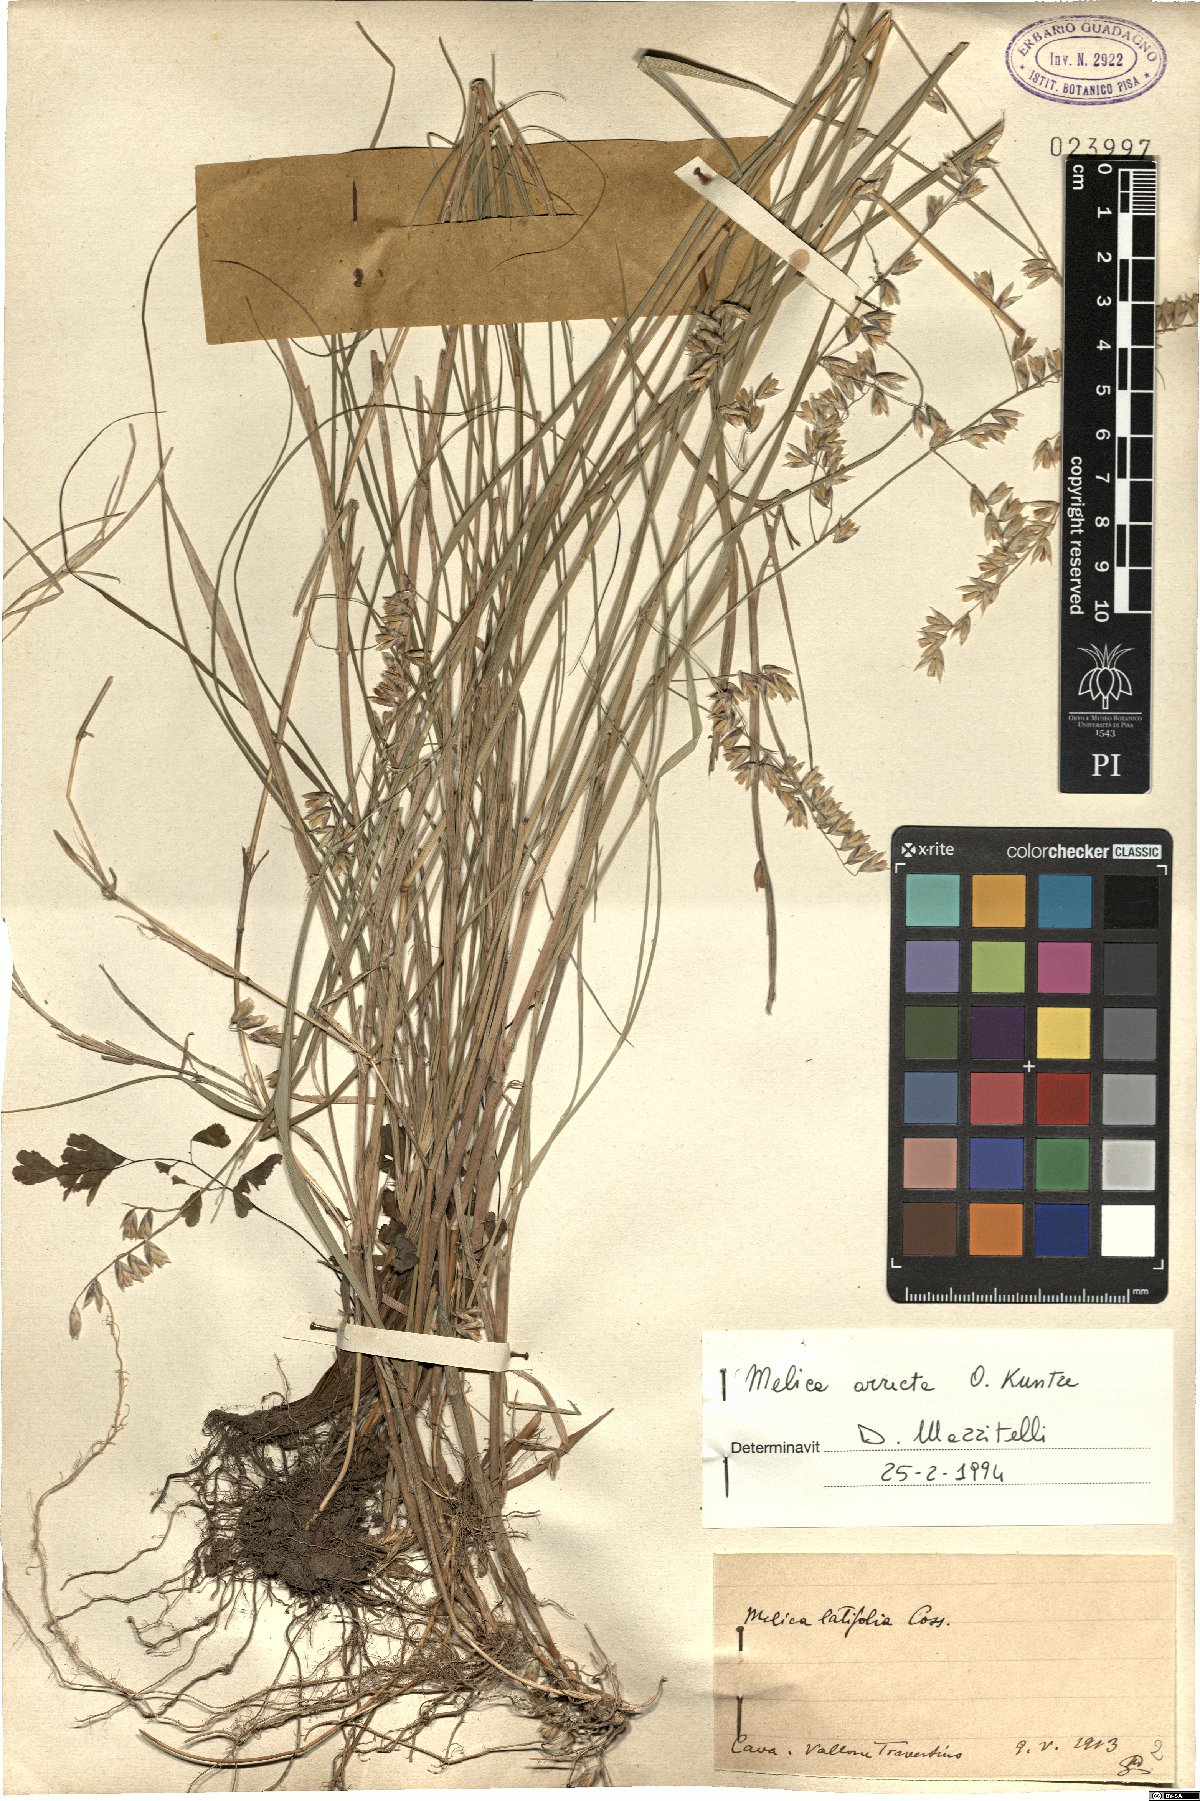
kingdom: Plantae
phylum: Tracheophyta
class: Liliopsida
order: Poales
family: Poaceae
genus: Melica
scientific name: Melica minuta
